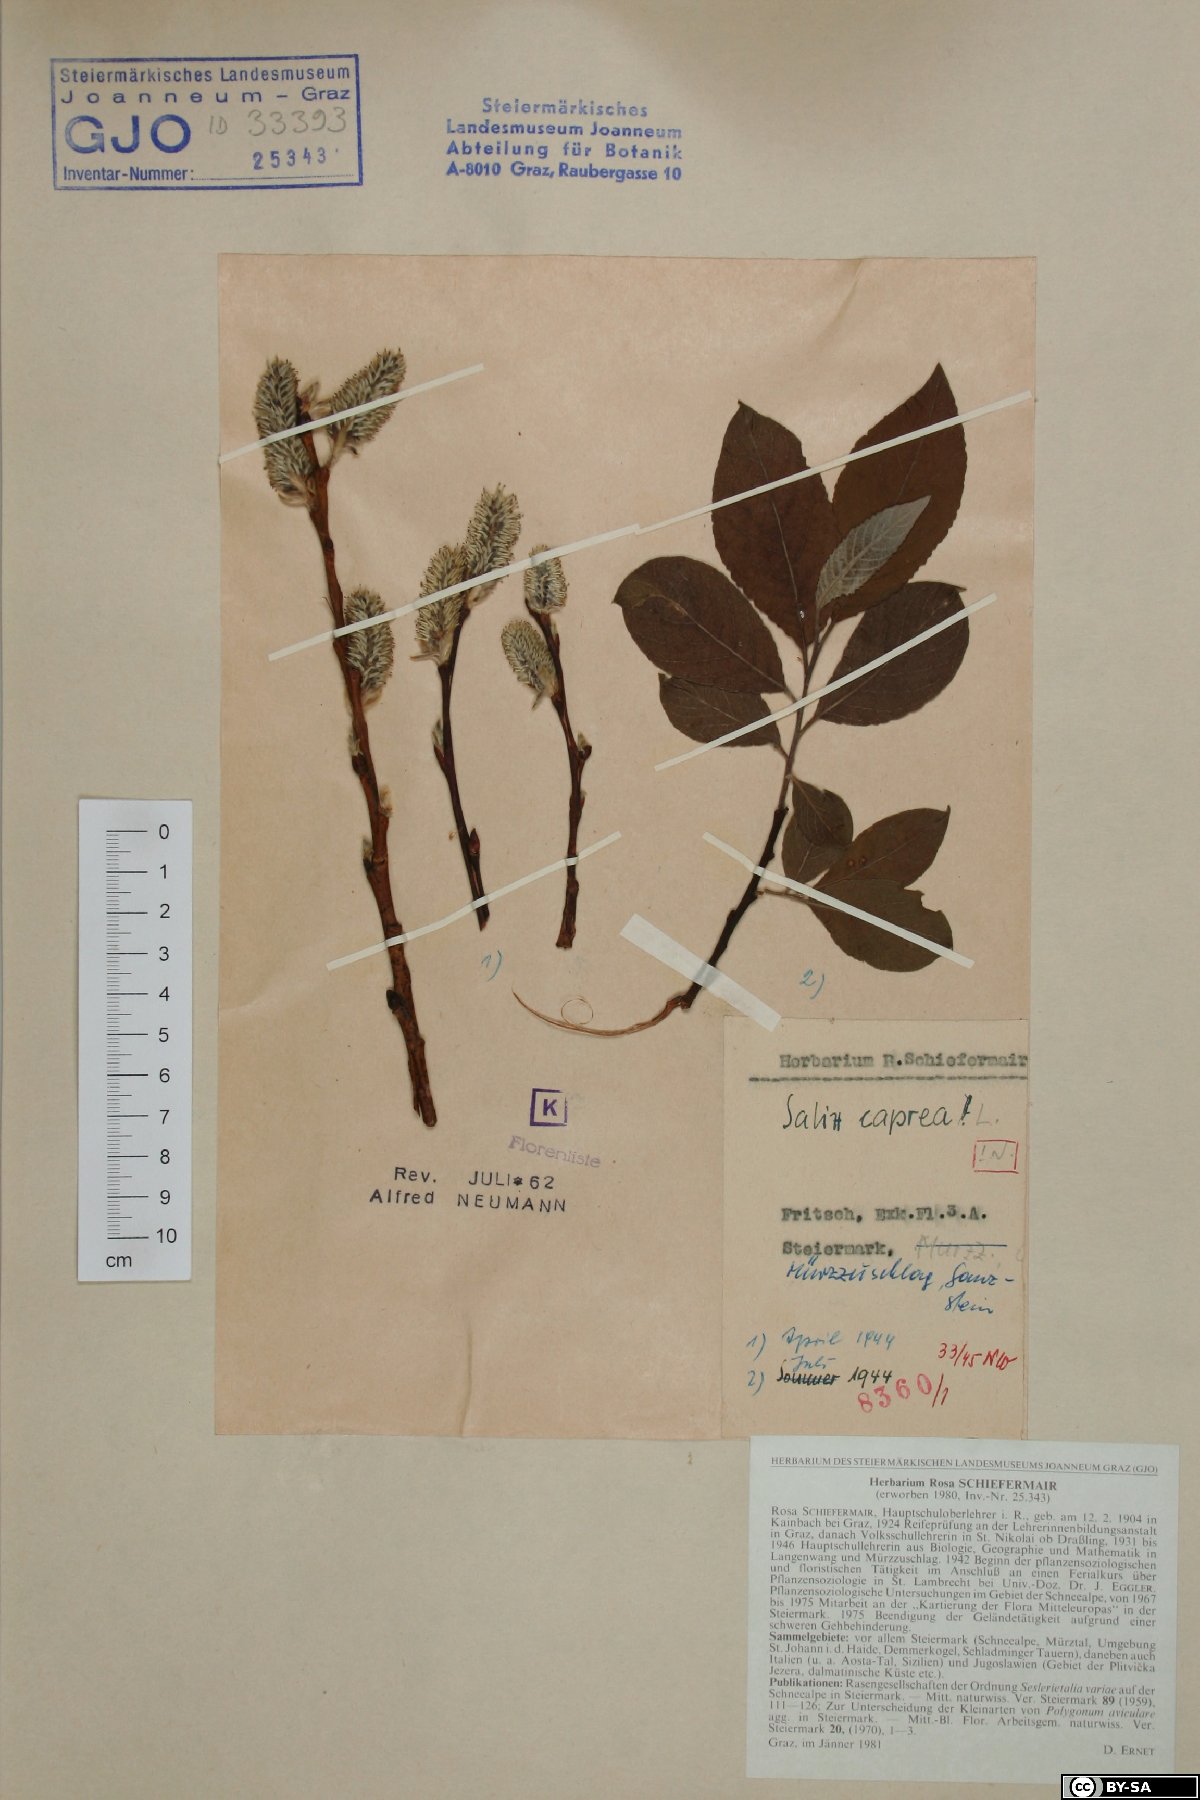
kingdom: Plantae
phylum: Tracheophyta
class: Magnoliopsida
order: Malpighiales
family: Salicaceae
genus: Salix
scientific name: Salix caprea
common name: Goat willow
